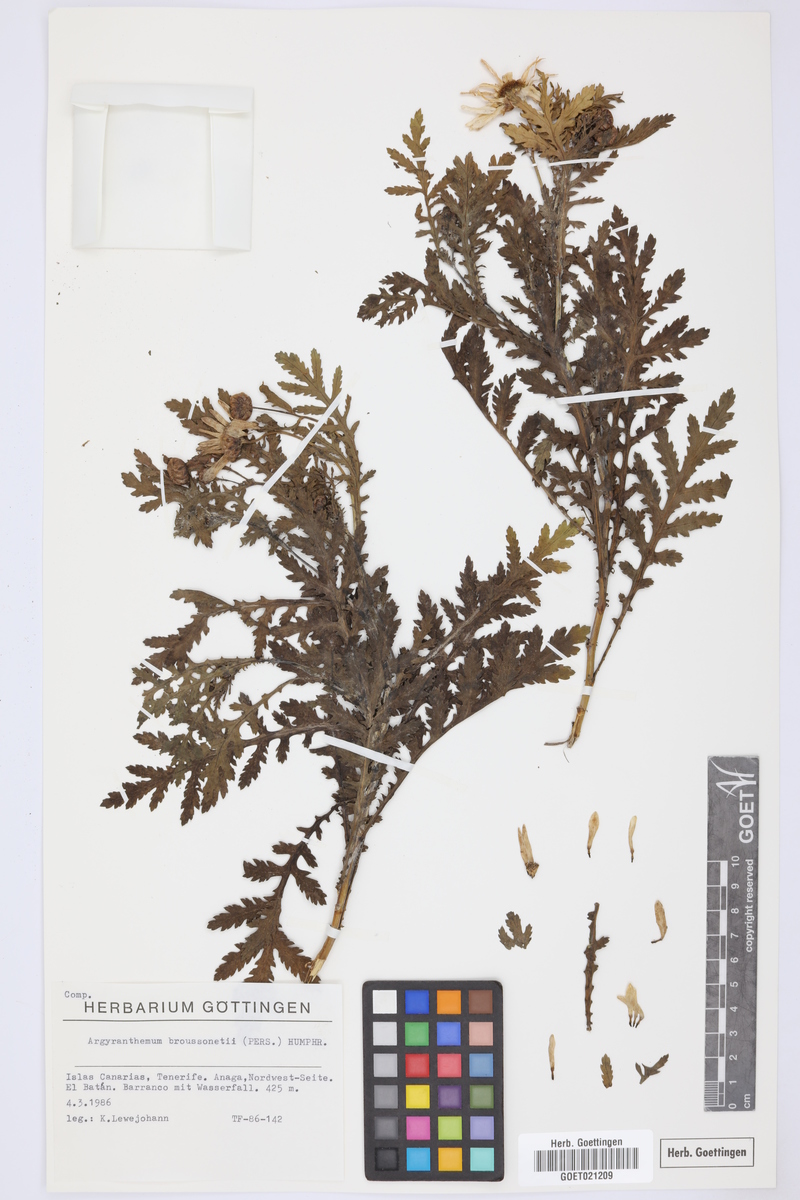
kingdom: Plantae
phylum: Tracheophyta
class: Magnoliopsida
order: Asterales
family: Asteraceae
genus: Argyranthemum
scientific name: Argyranthemum broussonetii
